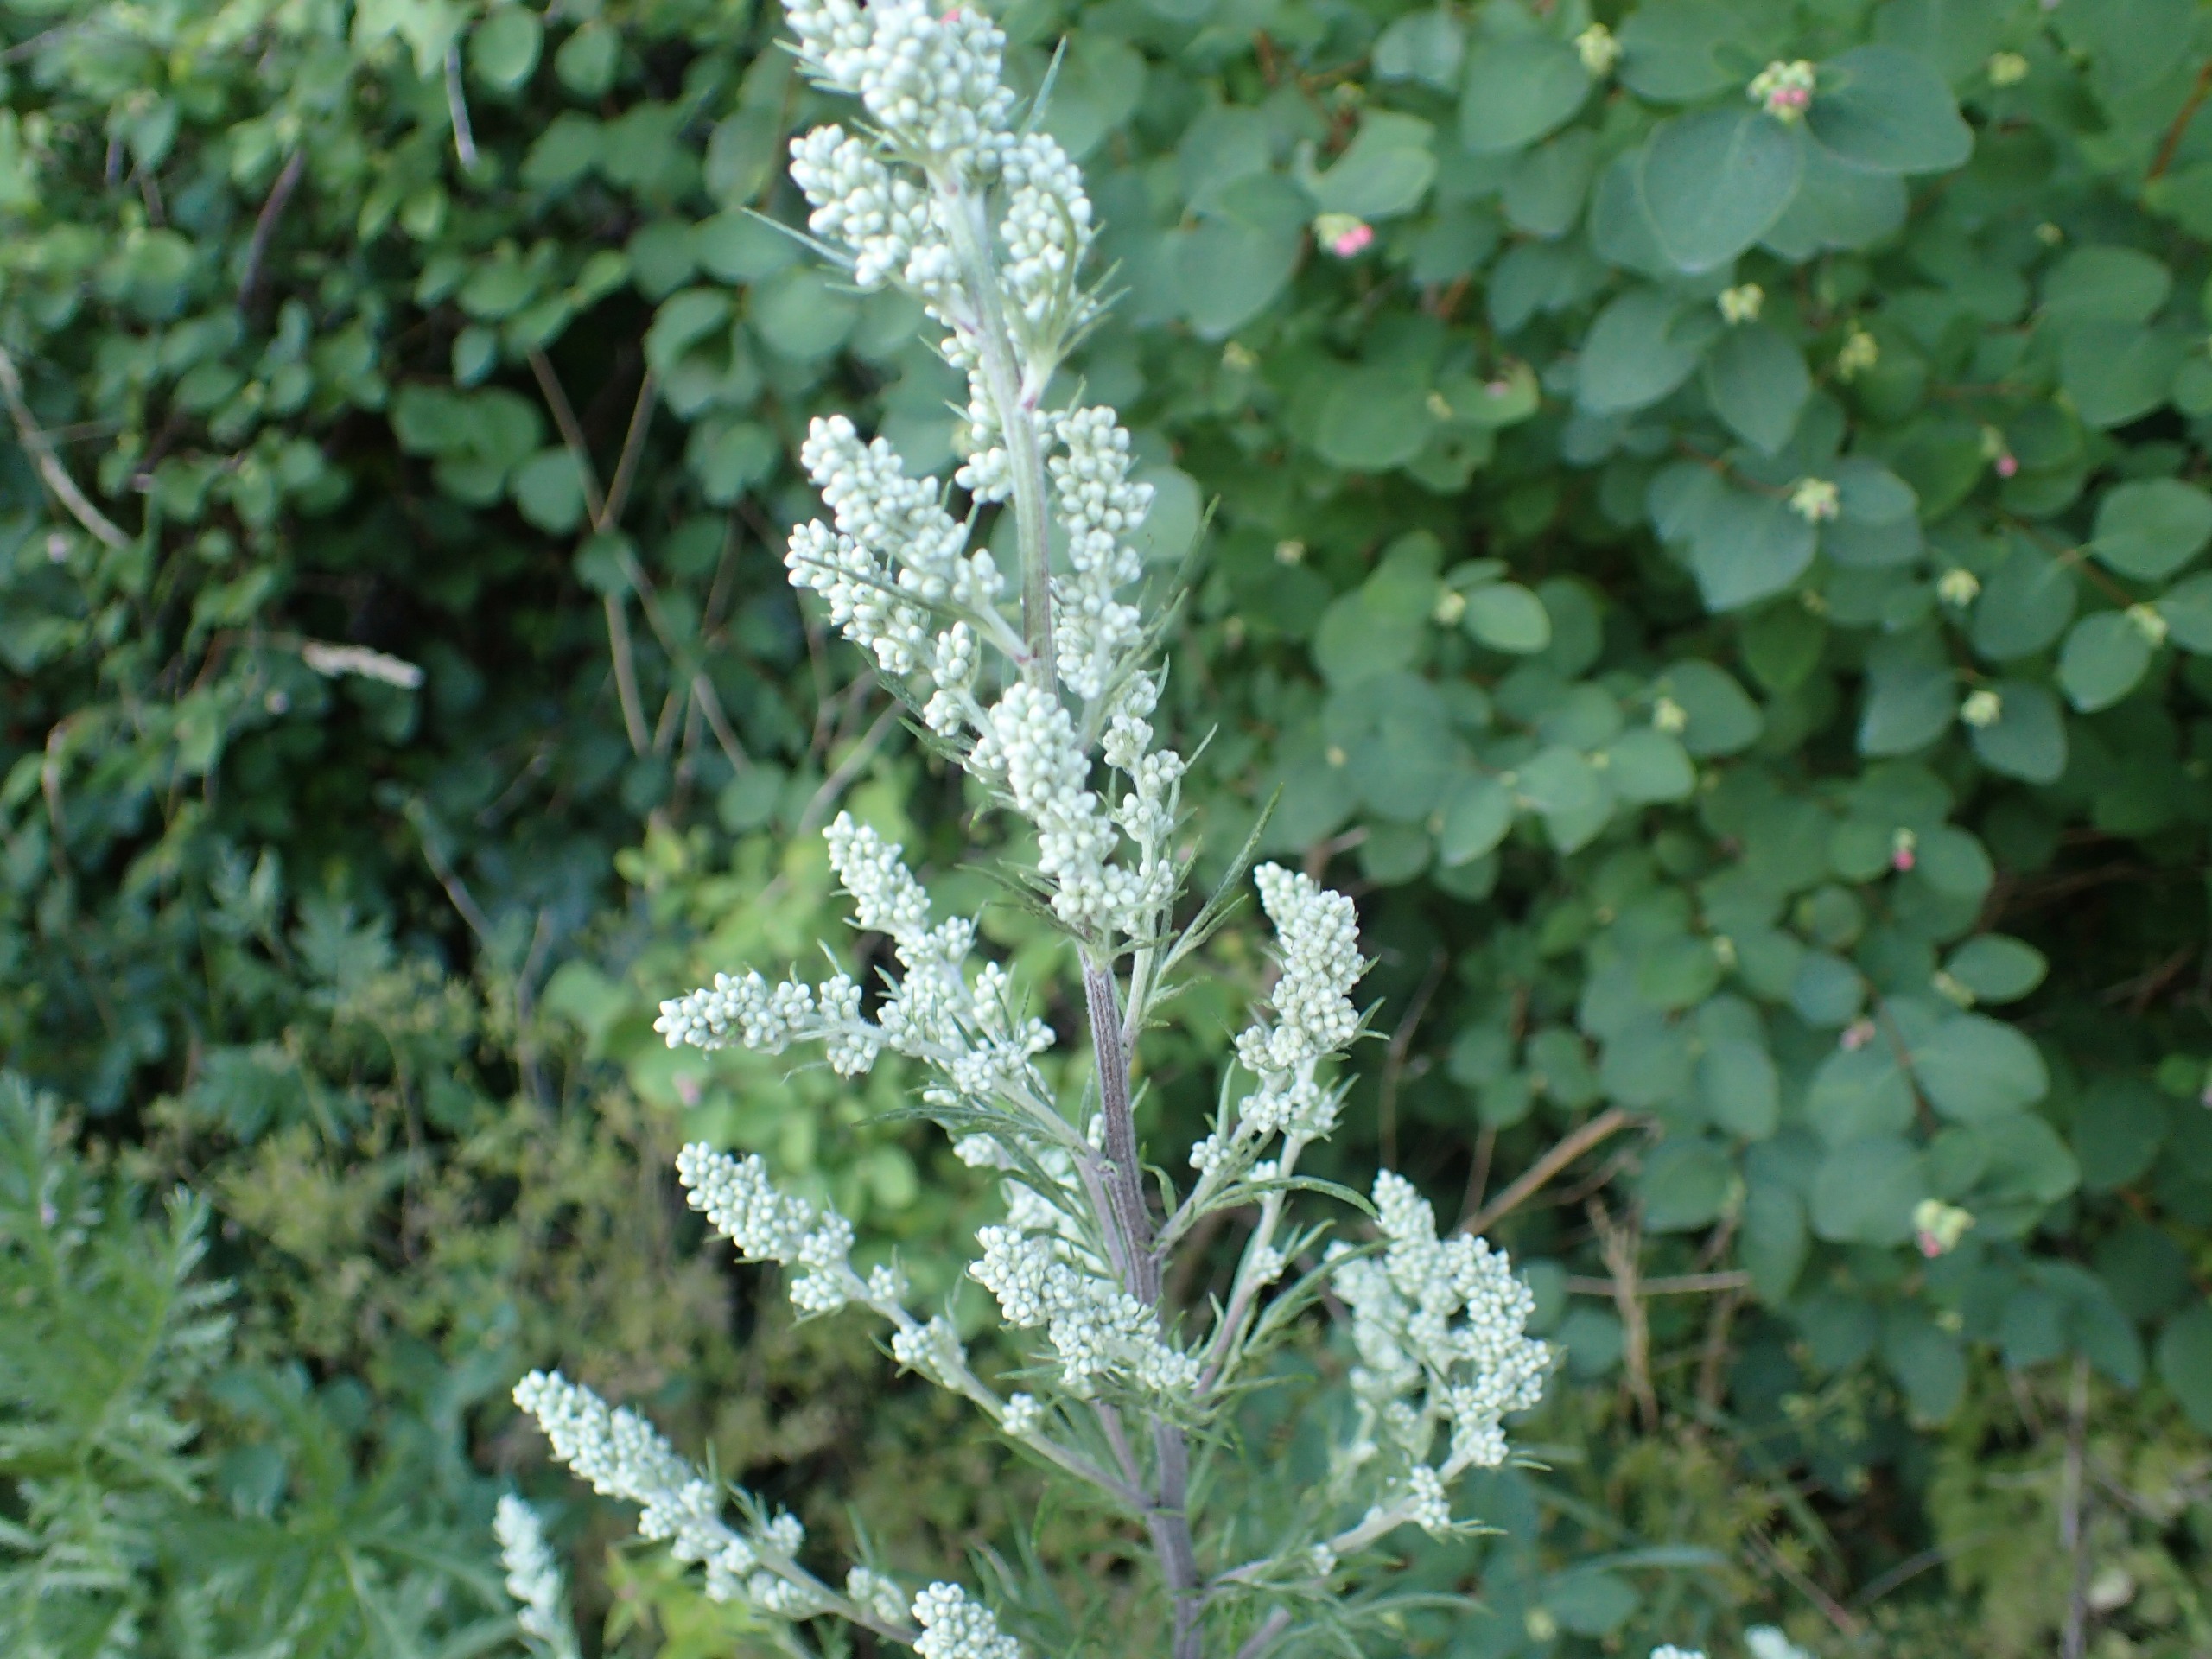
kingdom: Plantae
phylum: Tracheophyta
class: Magnoliopsida
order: Asterales
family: Asteraceae
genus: Artemisia
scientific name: Artemisia vulgaris
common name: Grå-bynke
